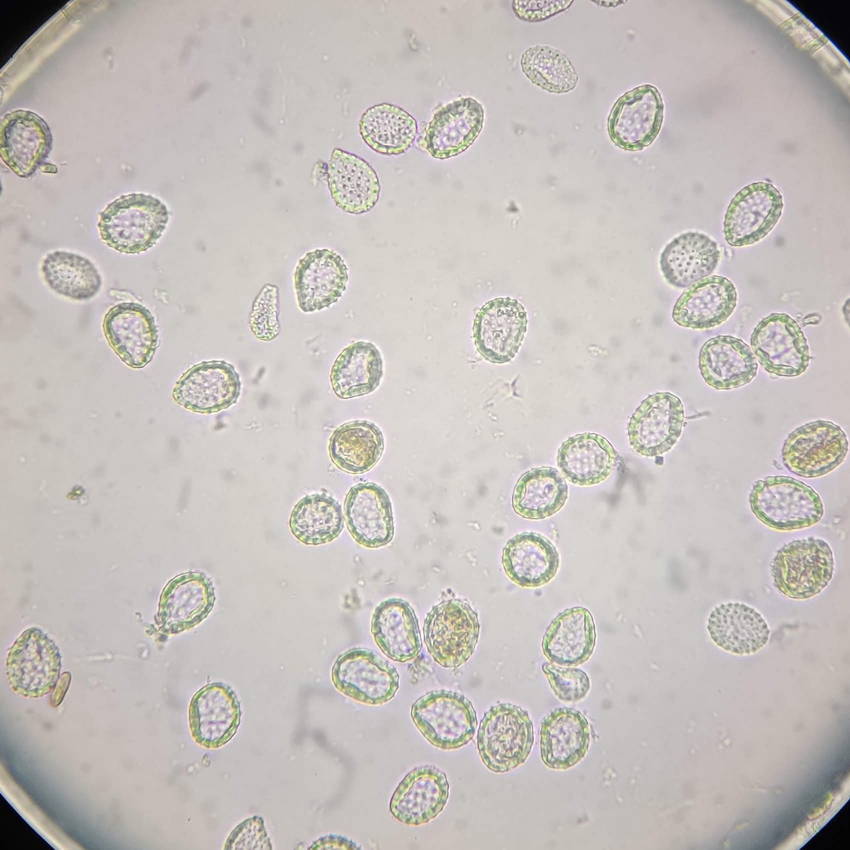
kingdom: Fungi
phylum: Basidiomycota
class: Pucciniomycetes
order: Pucciniales
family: Pucciniastraceae
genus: Pucciniastrum
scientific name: Pucciniastrum circaeae
